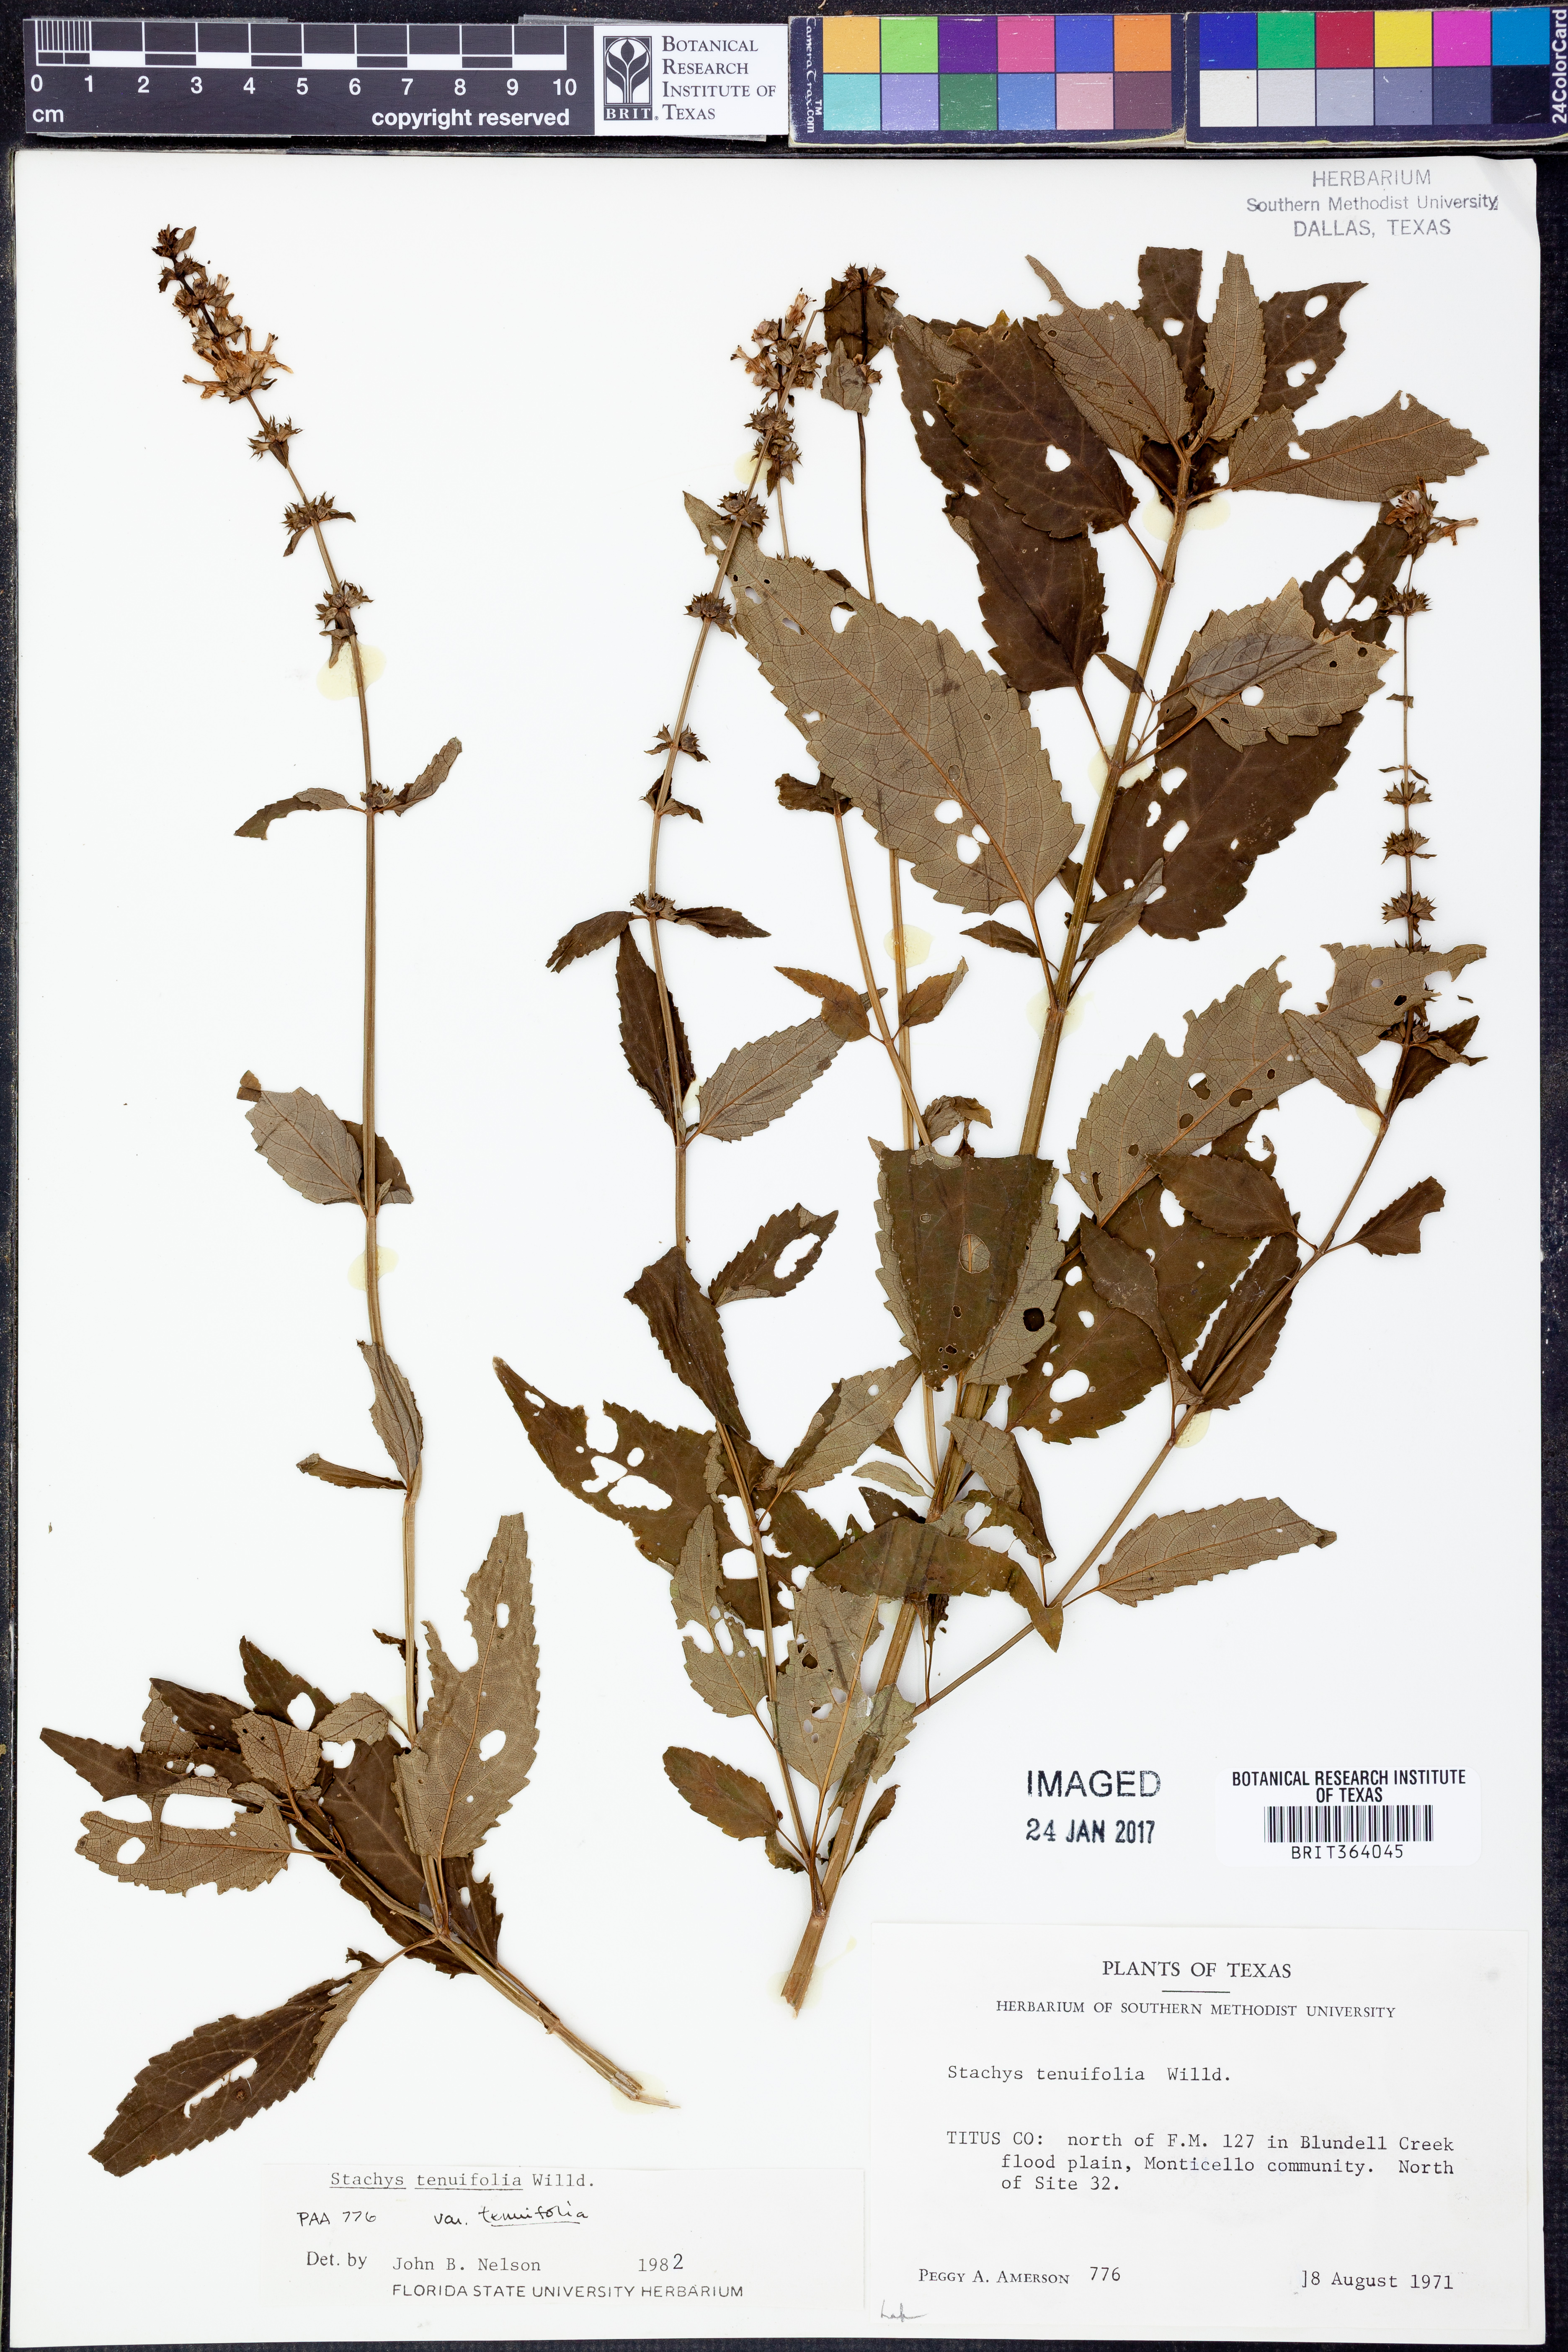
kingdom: Plantae
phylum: Tracheophyta
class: Magnoliopsida
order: Lamiales
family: Lamiaceae
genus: Stachys
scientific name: Stachys tenuifolia
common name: Smooth hedge-nettle
